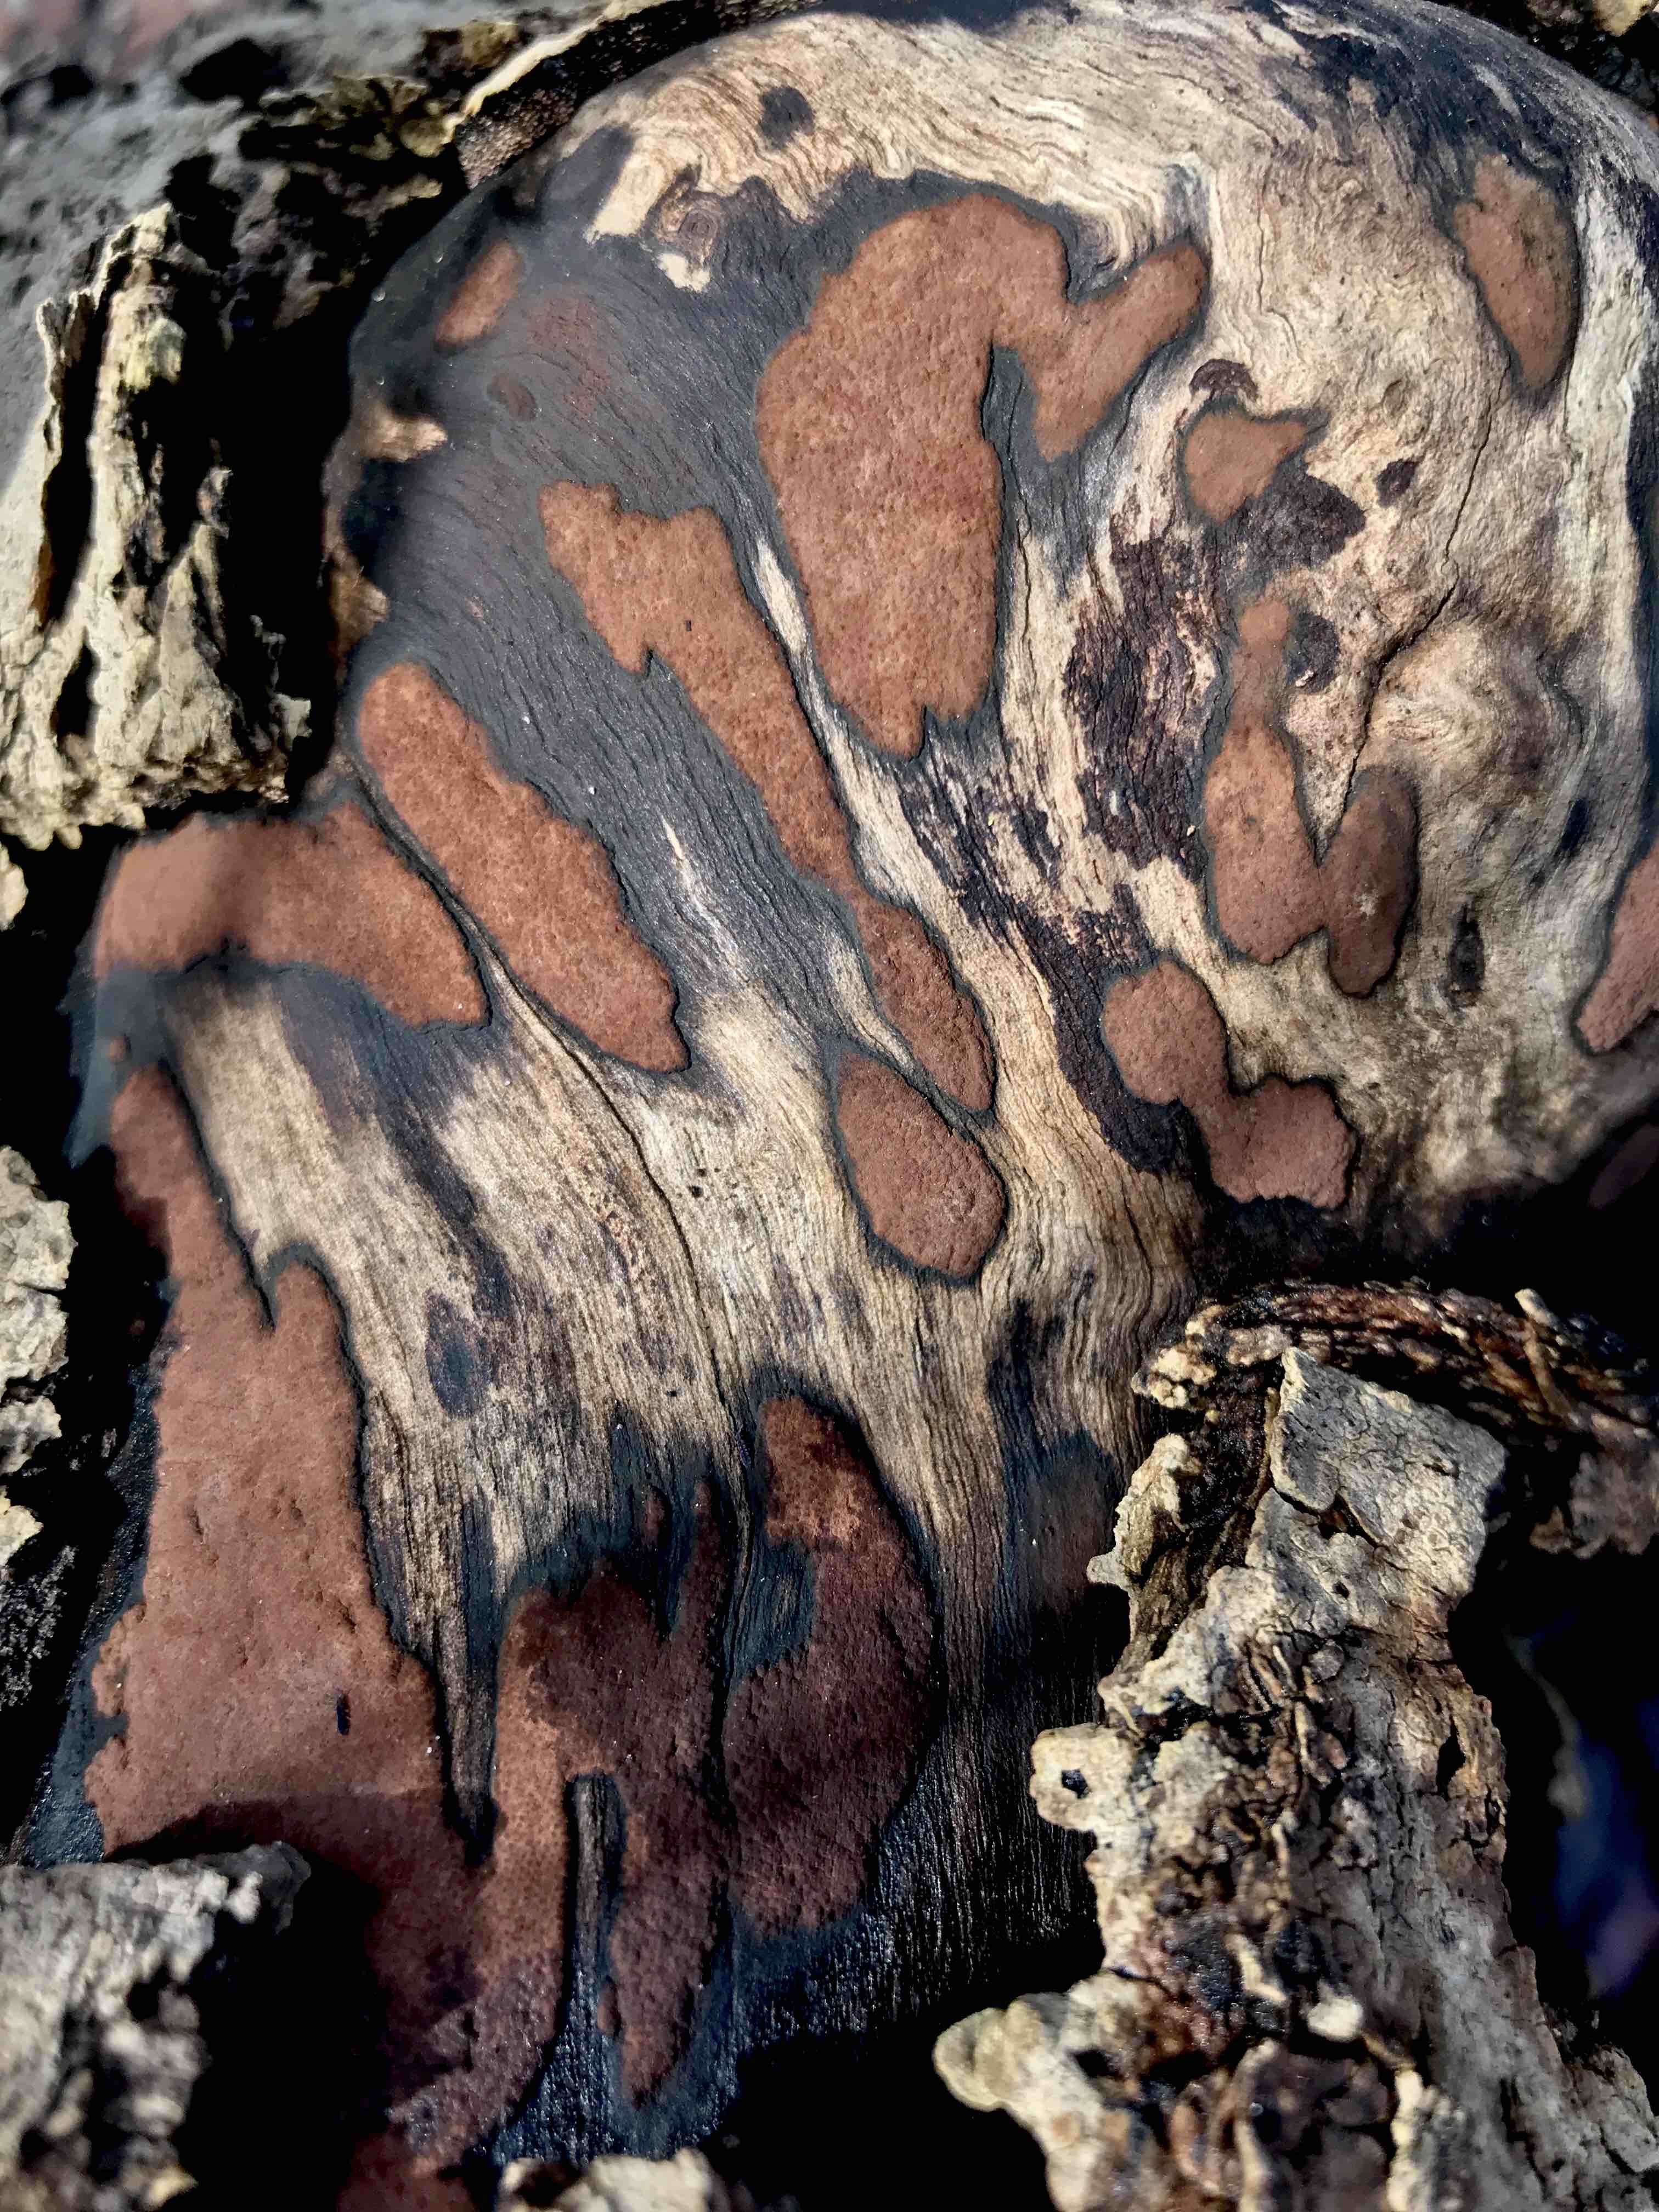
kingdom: Fungi
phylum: Ascomycota
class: Sordariomycetes
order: Xylariales
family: Hypoxylaceae
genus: Hypoxylon
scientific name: Hypoxylon petriniae
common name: nedsænket kulbær
